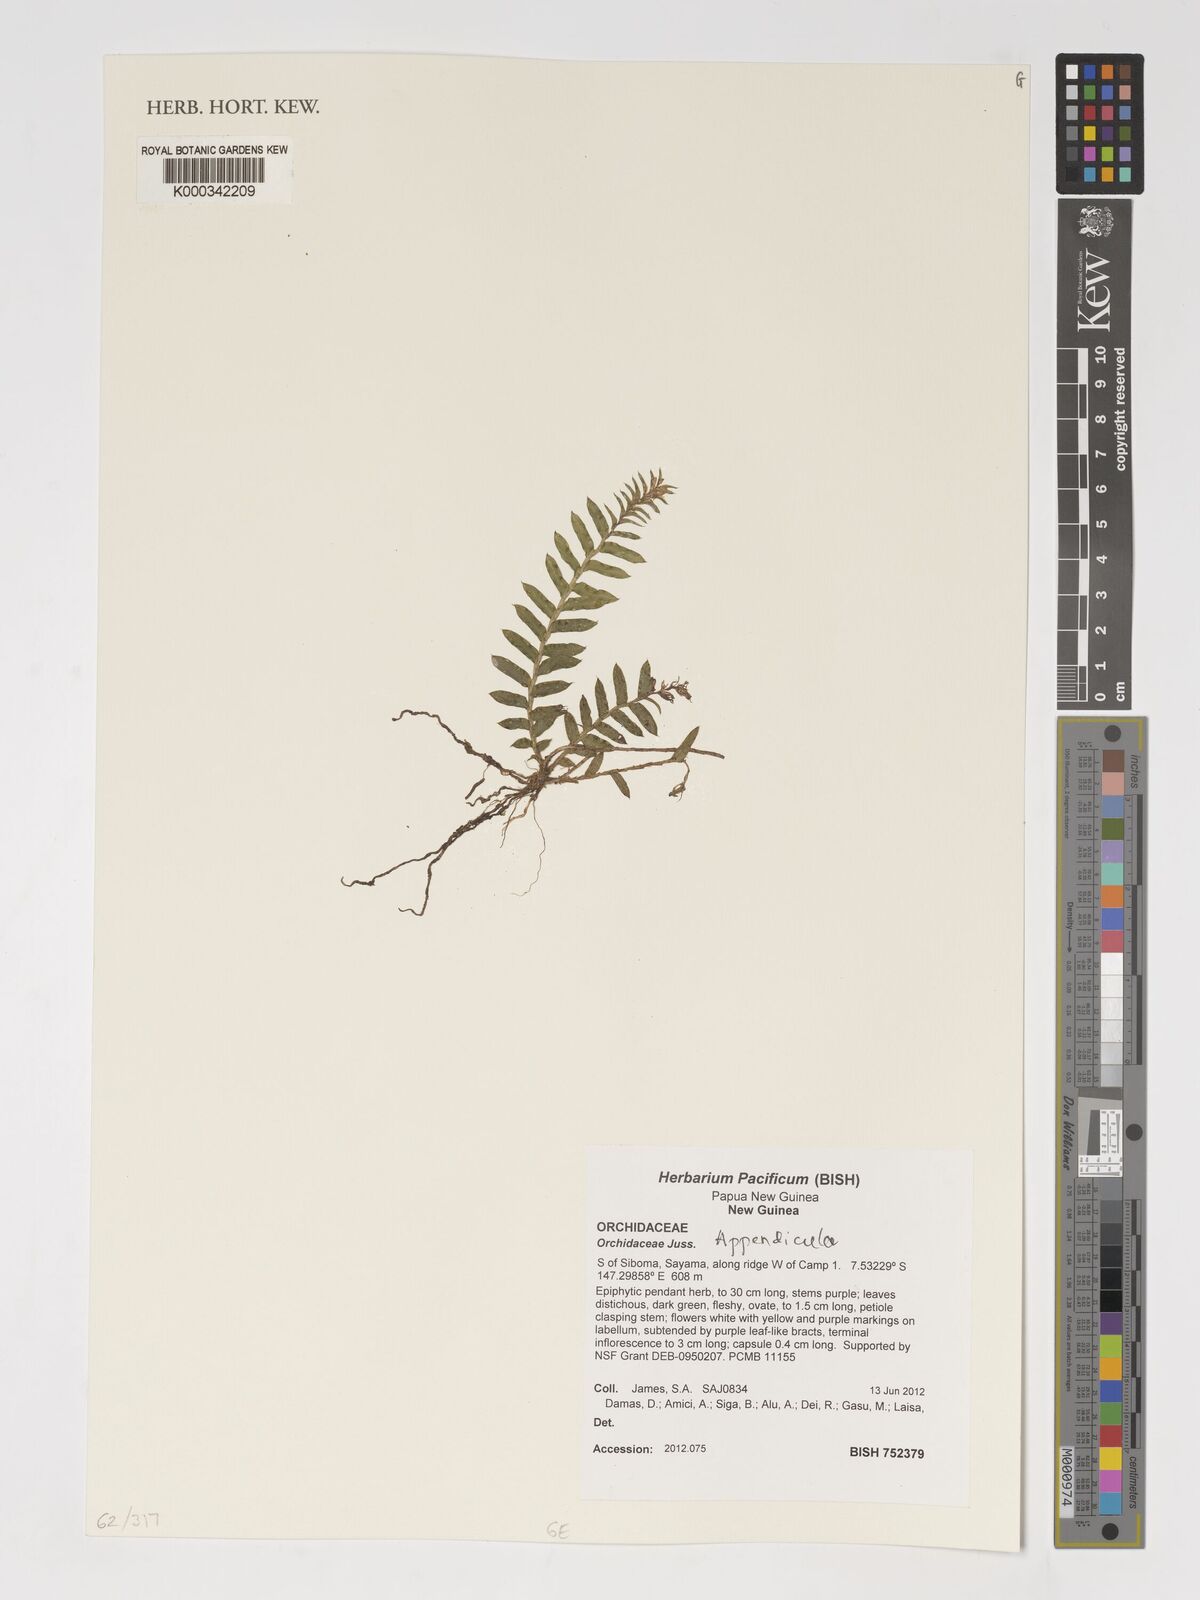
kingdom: Plantae
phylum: Tracheophyta
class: Liliopsida
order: Asparagales
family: Orchidaceae
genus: Appendicula
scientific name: Appendicula
